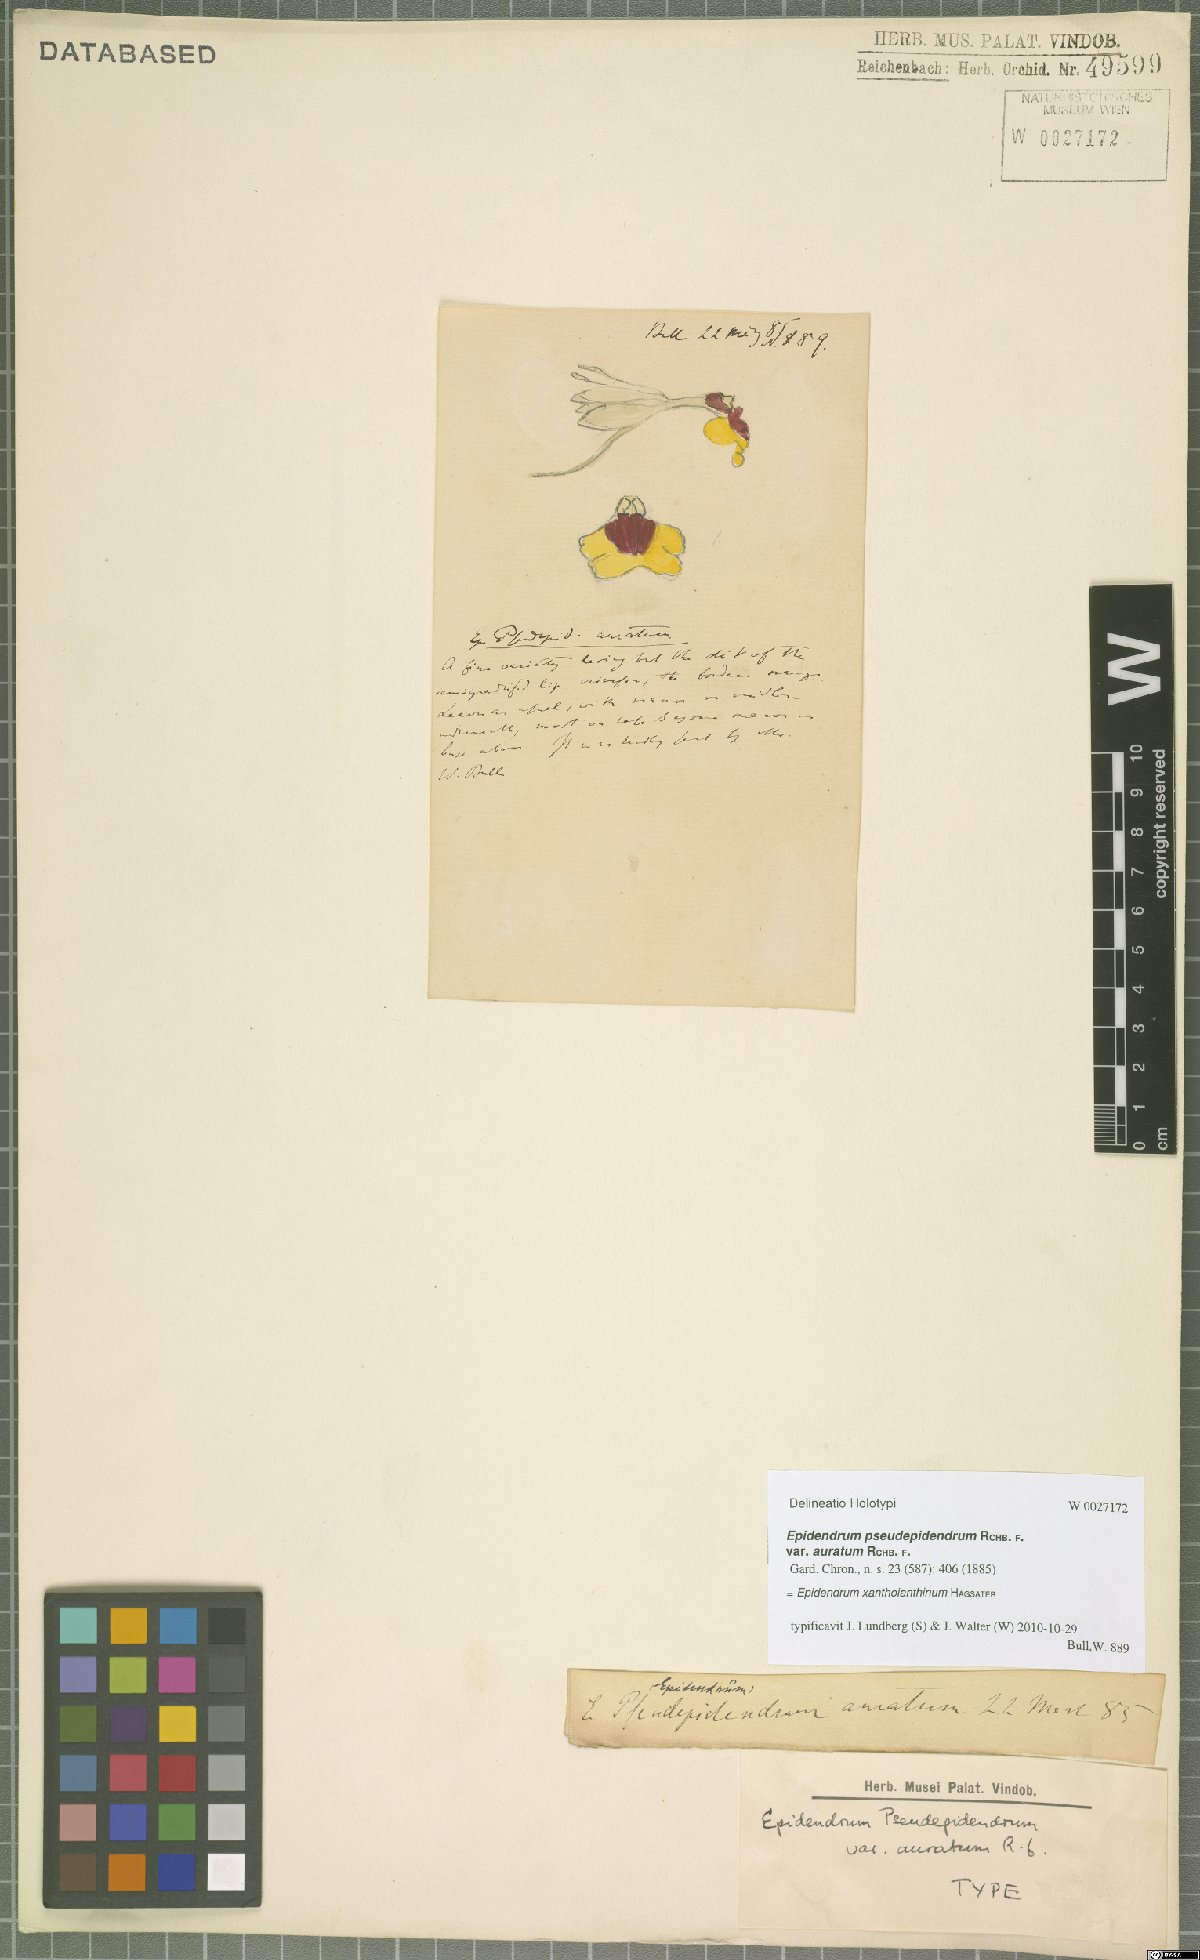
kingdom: Plantae
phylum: Tracheophyta
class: Liliopsida
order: Asparagales
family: Orchidaceae
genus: Epidendrum
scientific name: Epidendrum xanthoianthinum
